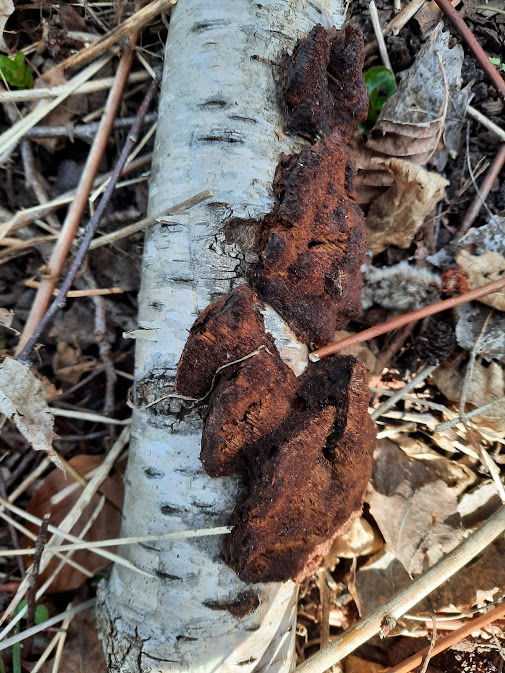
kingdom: Fungi
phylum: Basidiomycota
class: Agaricomycetes
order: Polyporales
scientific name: Polyporales
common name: poresvampordenen
